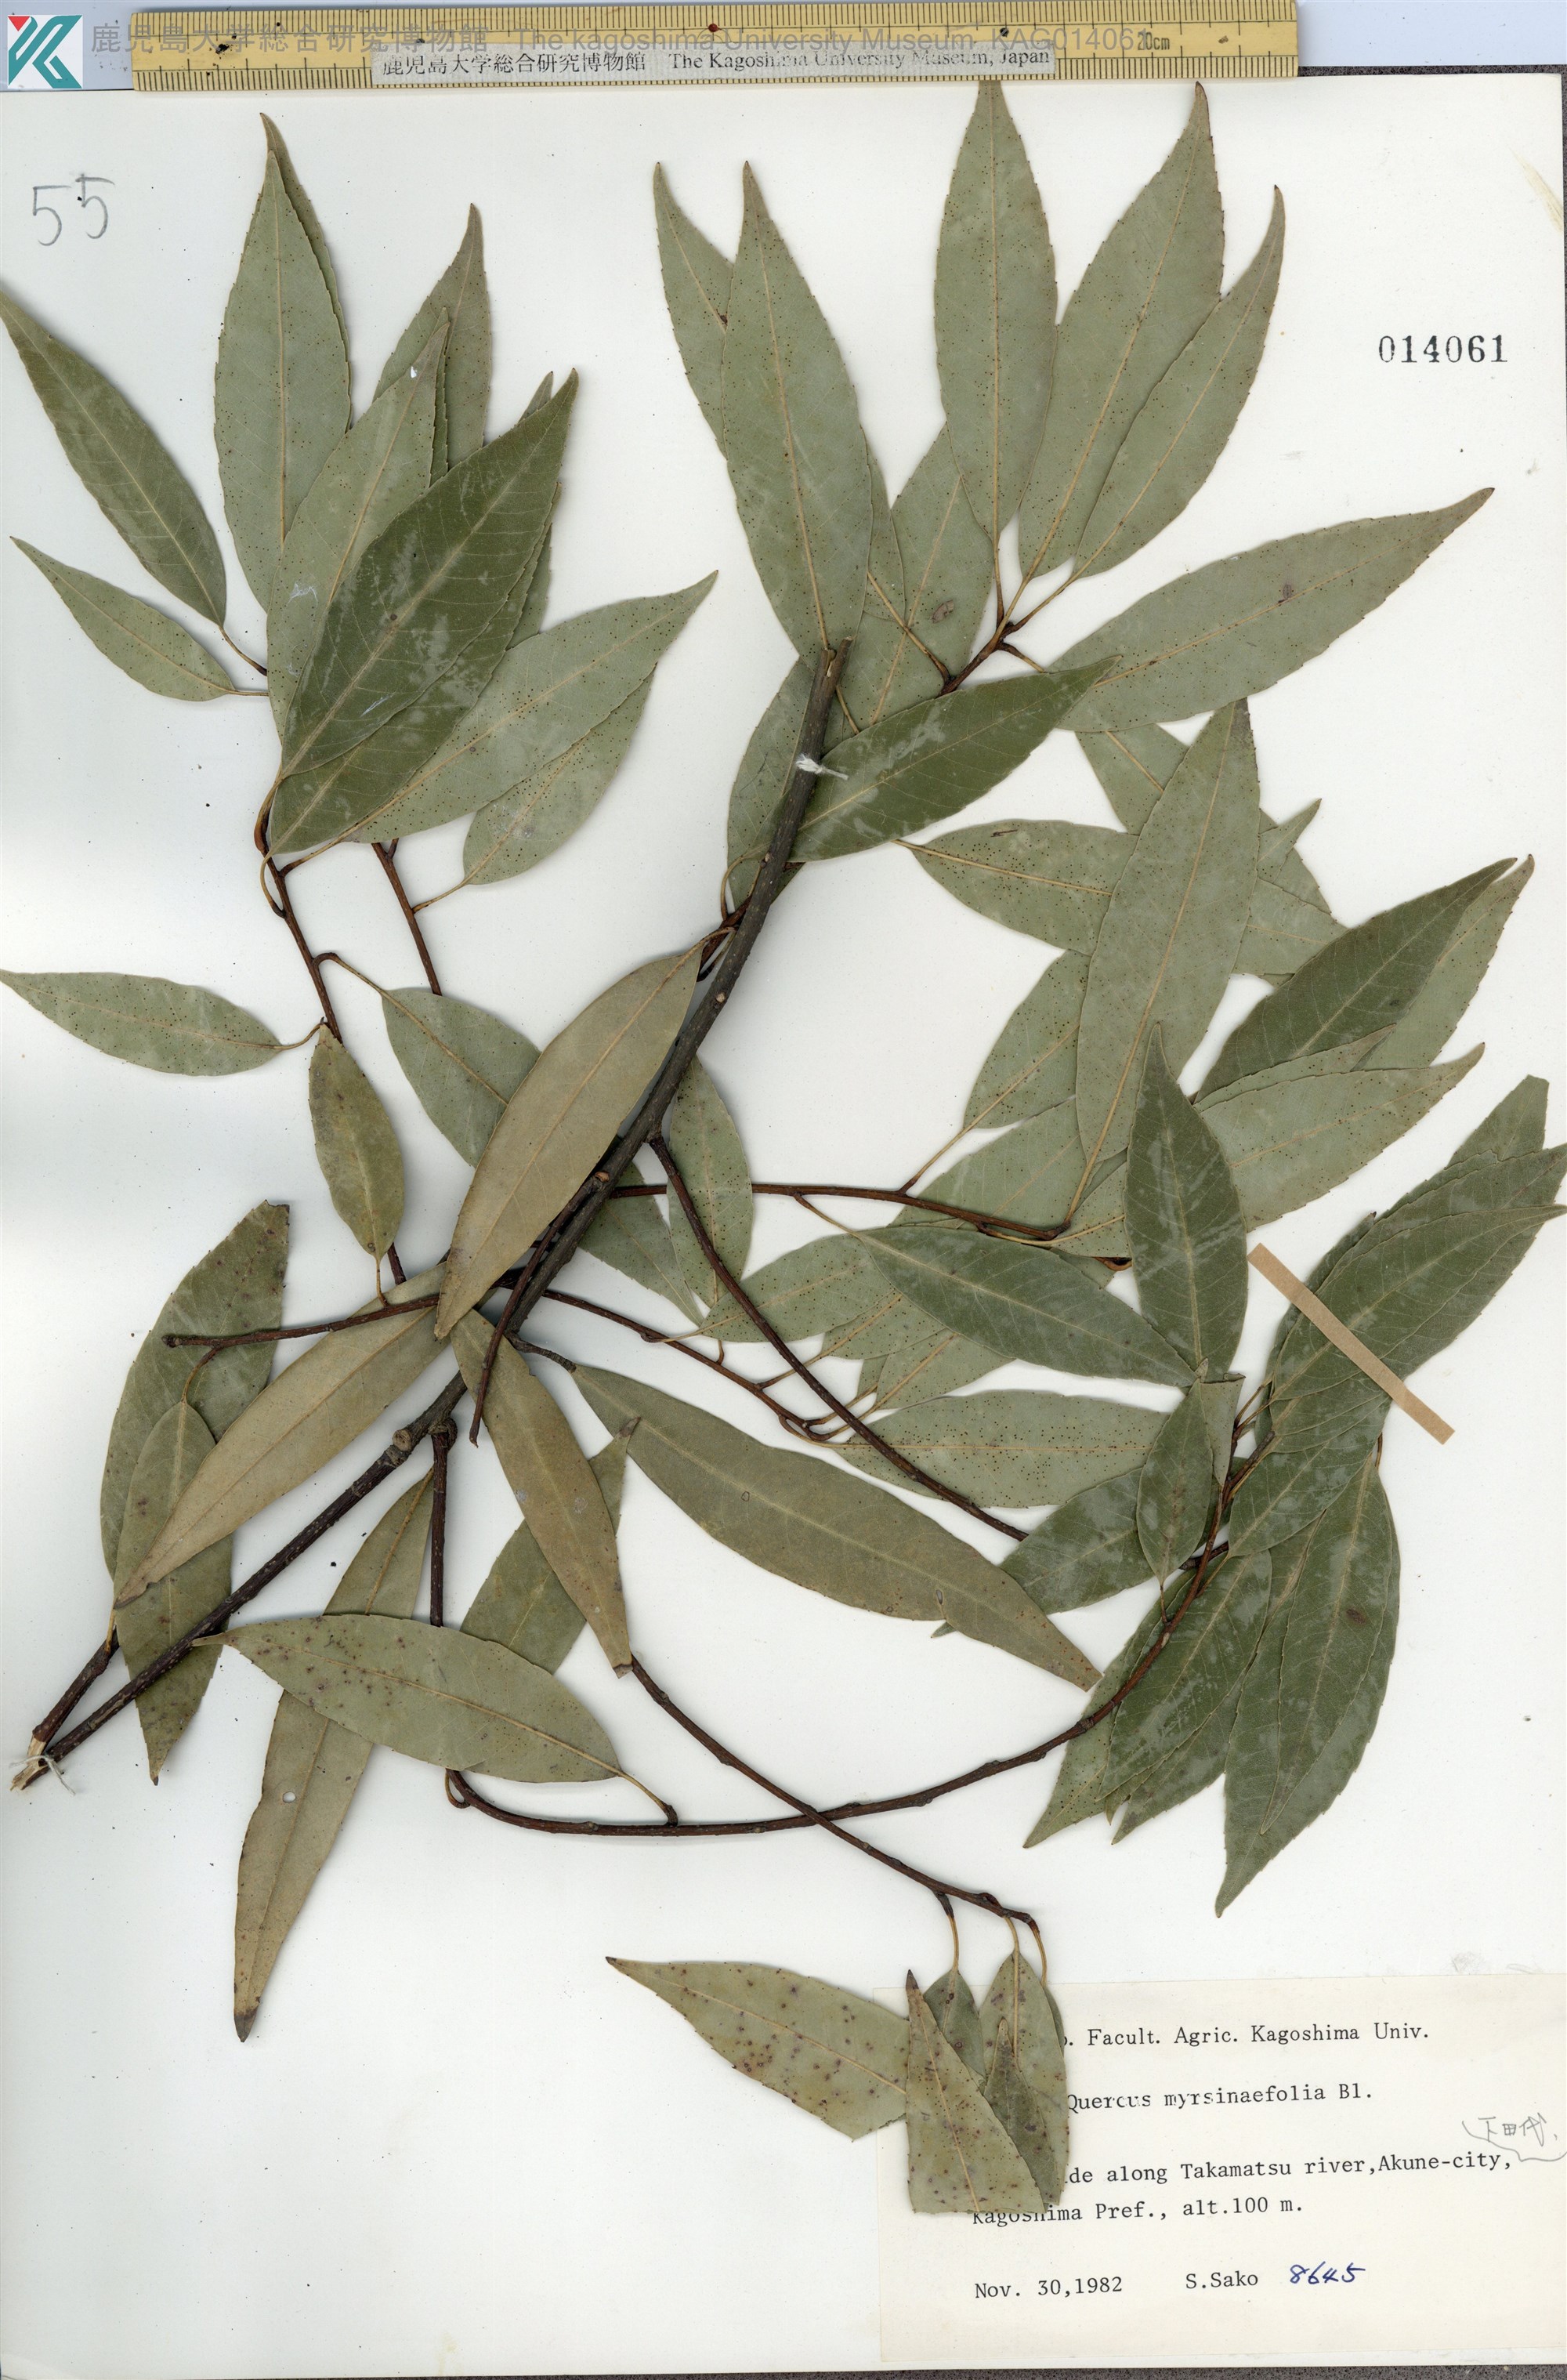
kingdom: Plantae
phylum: Tracheophyta
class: Magnoliopsida
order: Fagales
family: Fagaceae
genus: Quercus
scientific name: Quercus myrsinaefolia
